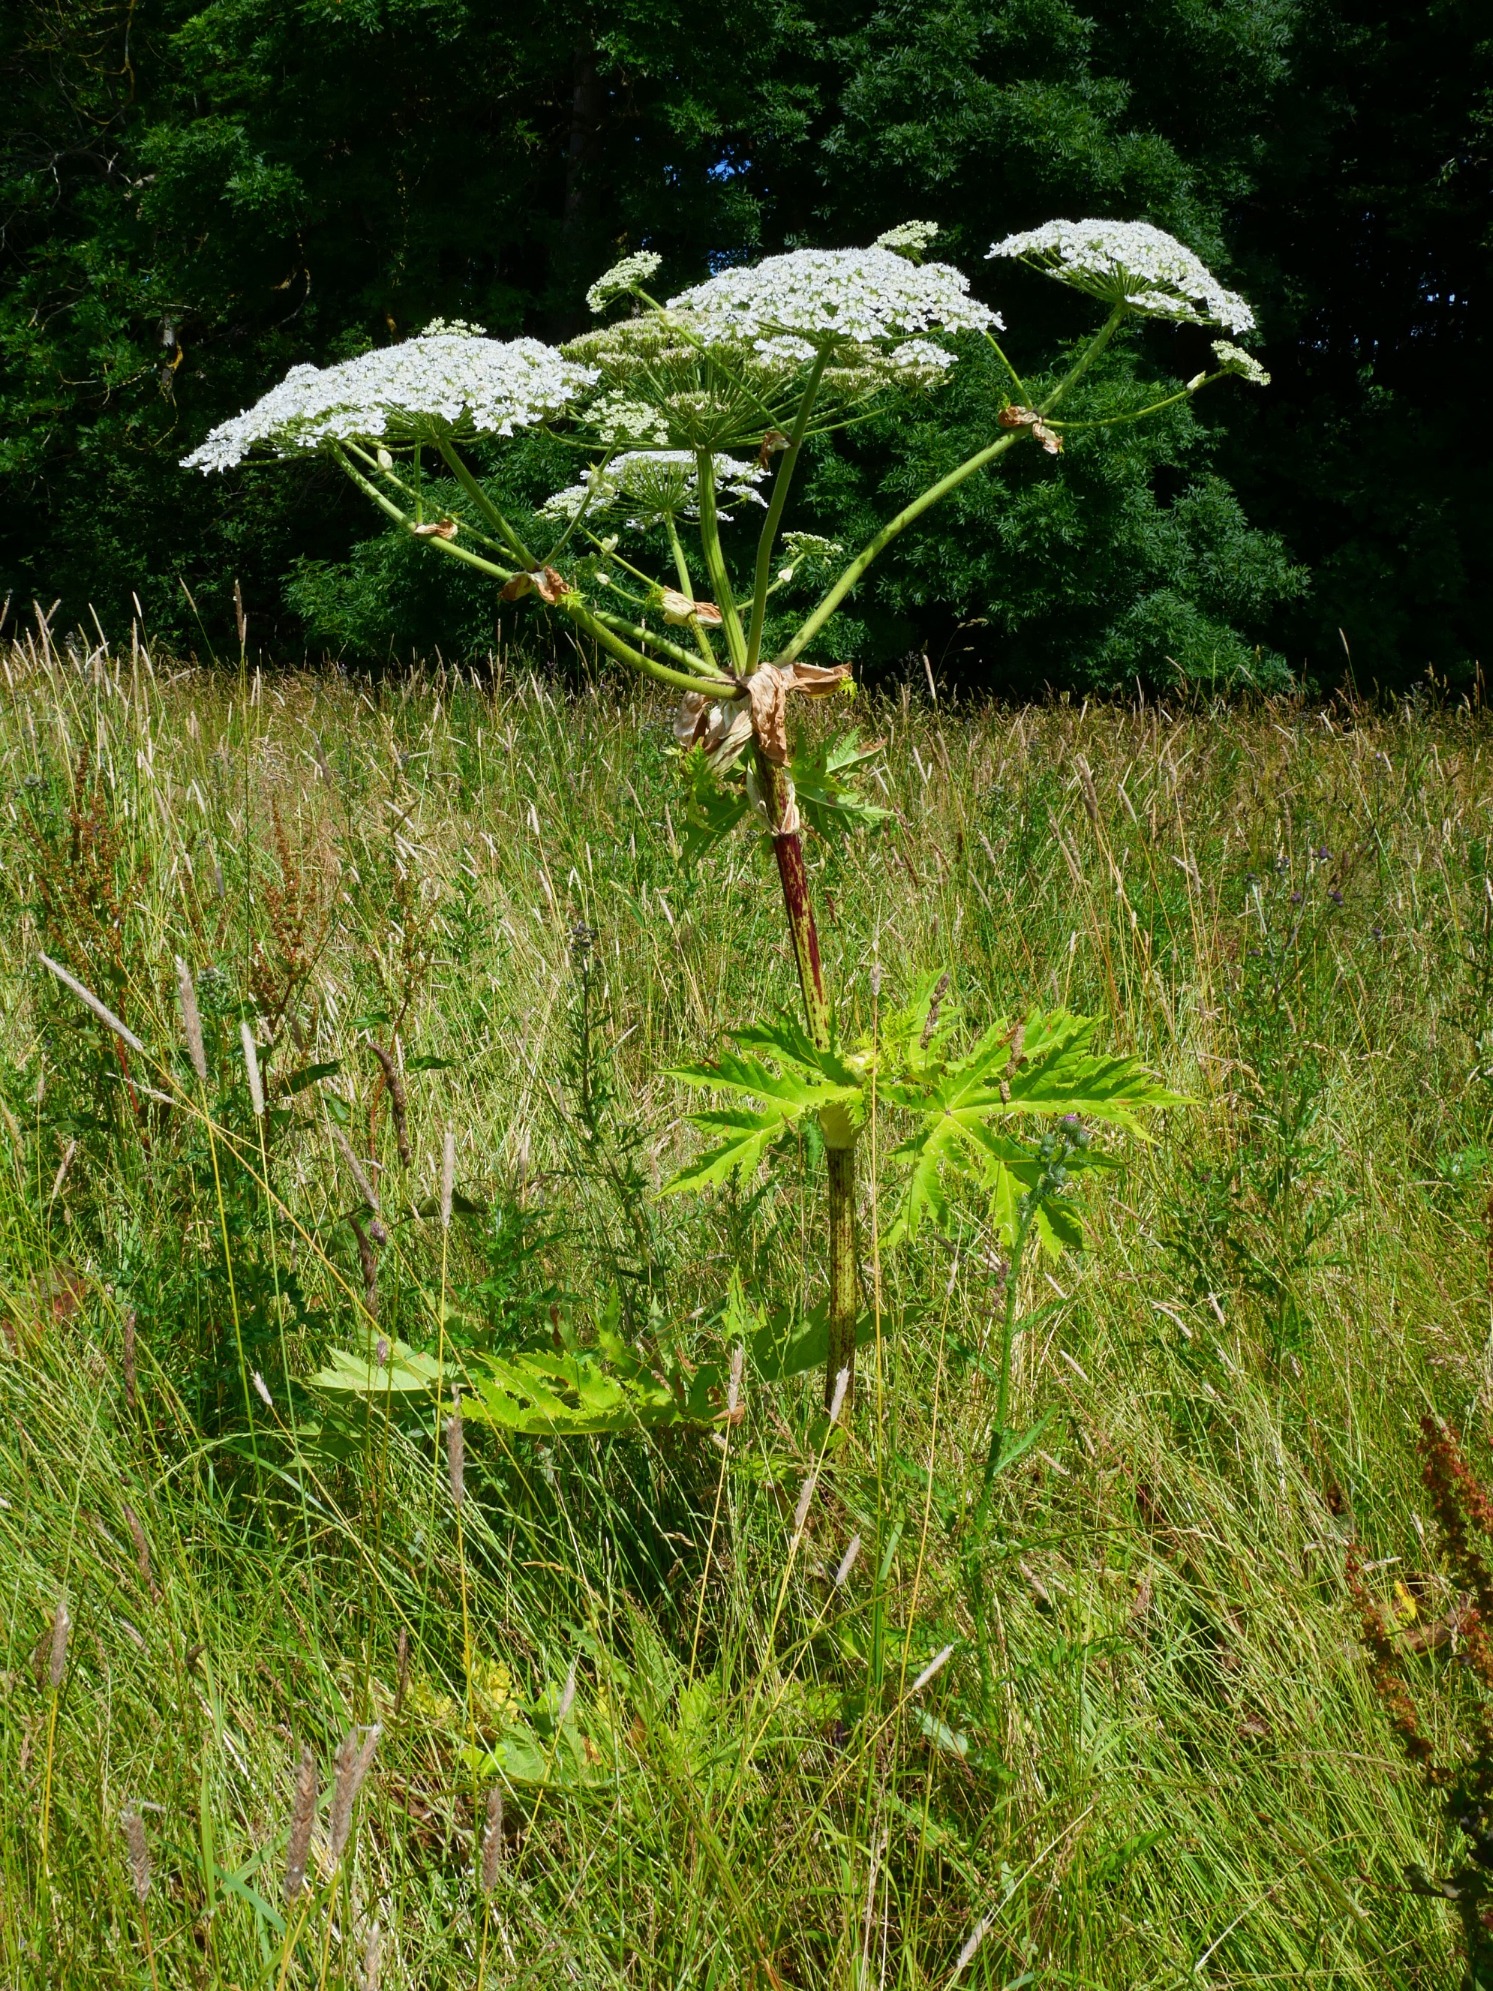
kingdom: Plantae
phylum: Tracheophyta
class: Magnoliopsida
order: Apiales
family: Apiaceae
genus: Heracleum
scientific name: Heracleum mantegazzianum
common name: Kæmpe-bjørneklo
